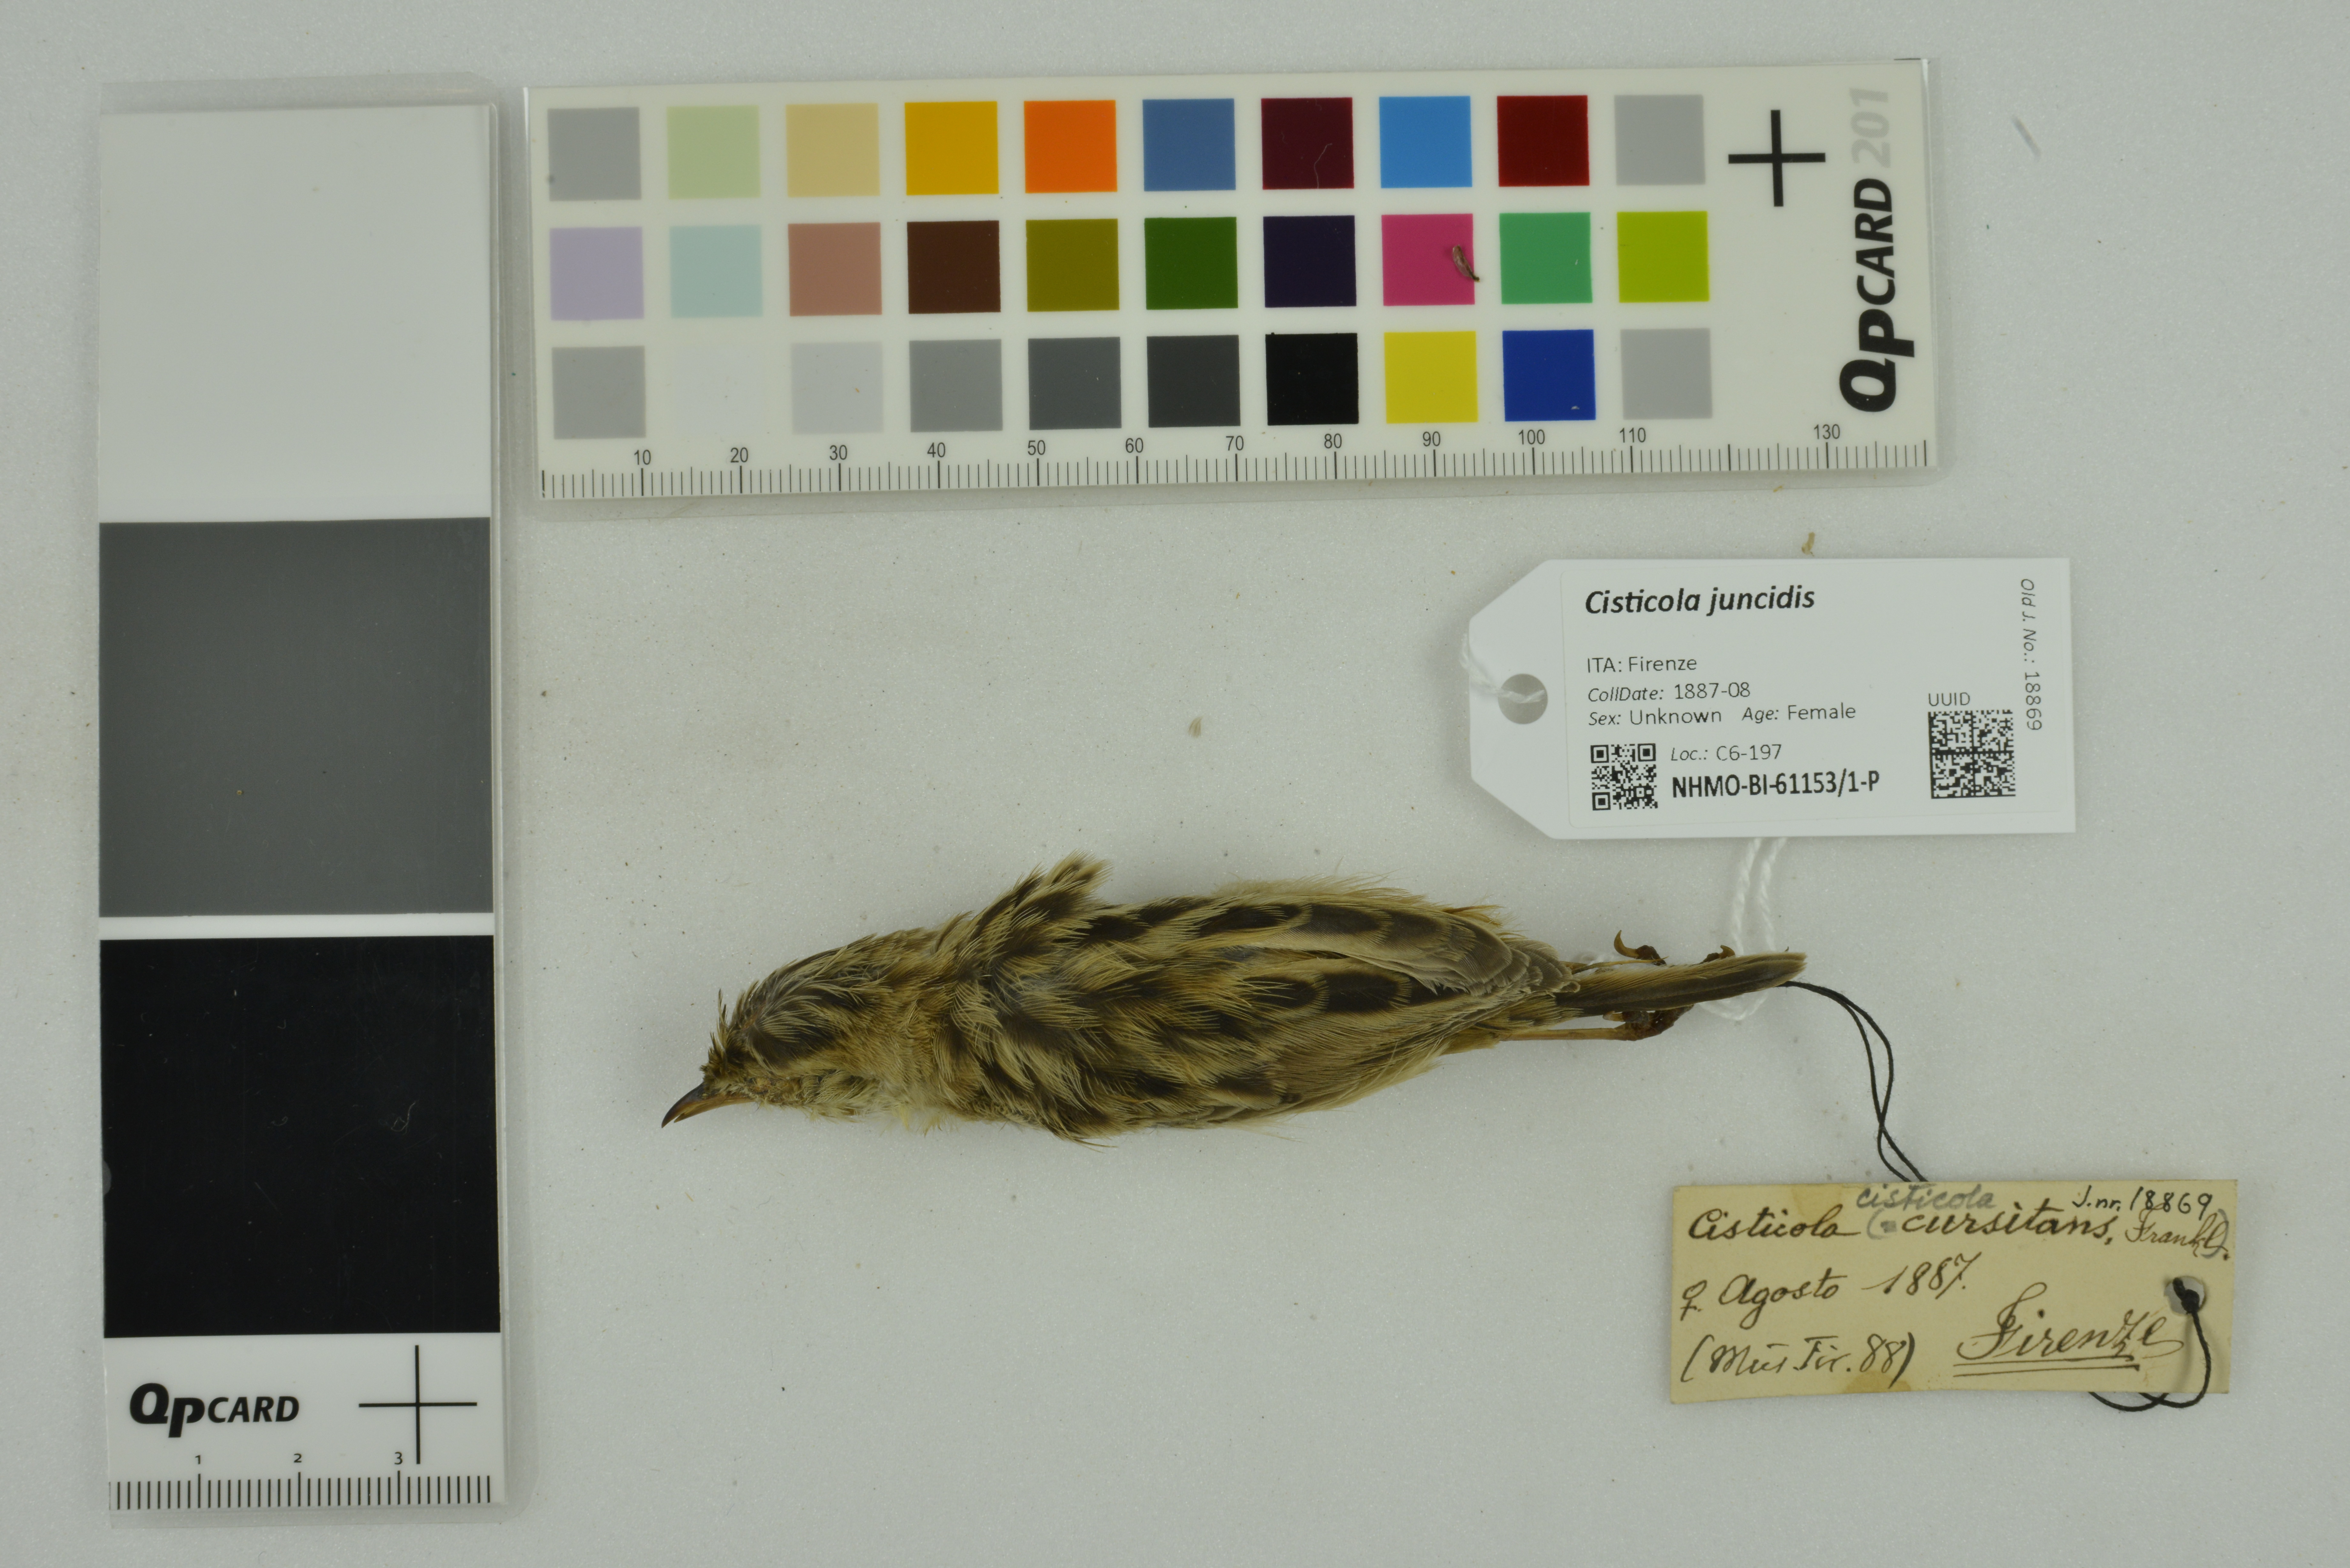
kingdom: Animalia
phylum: Chordata
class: Aves
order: Passeriformes
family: Cisticolidae
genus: Cisticola
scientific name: Cisticola juncidis
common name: Zitting cisticola
